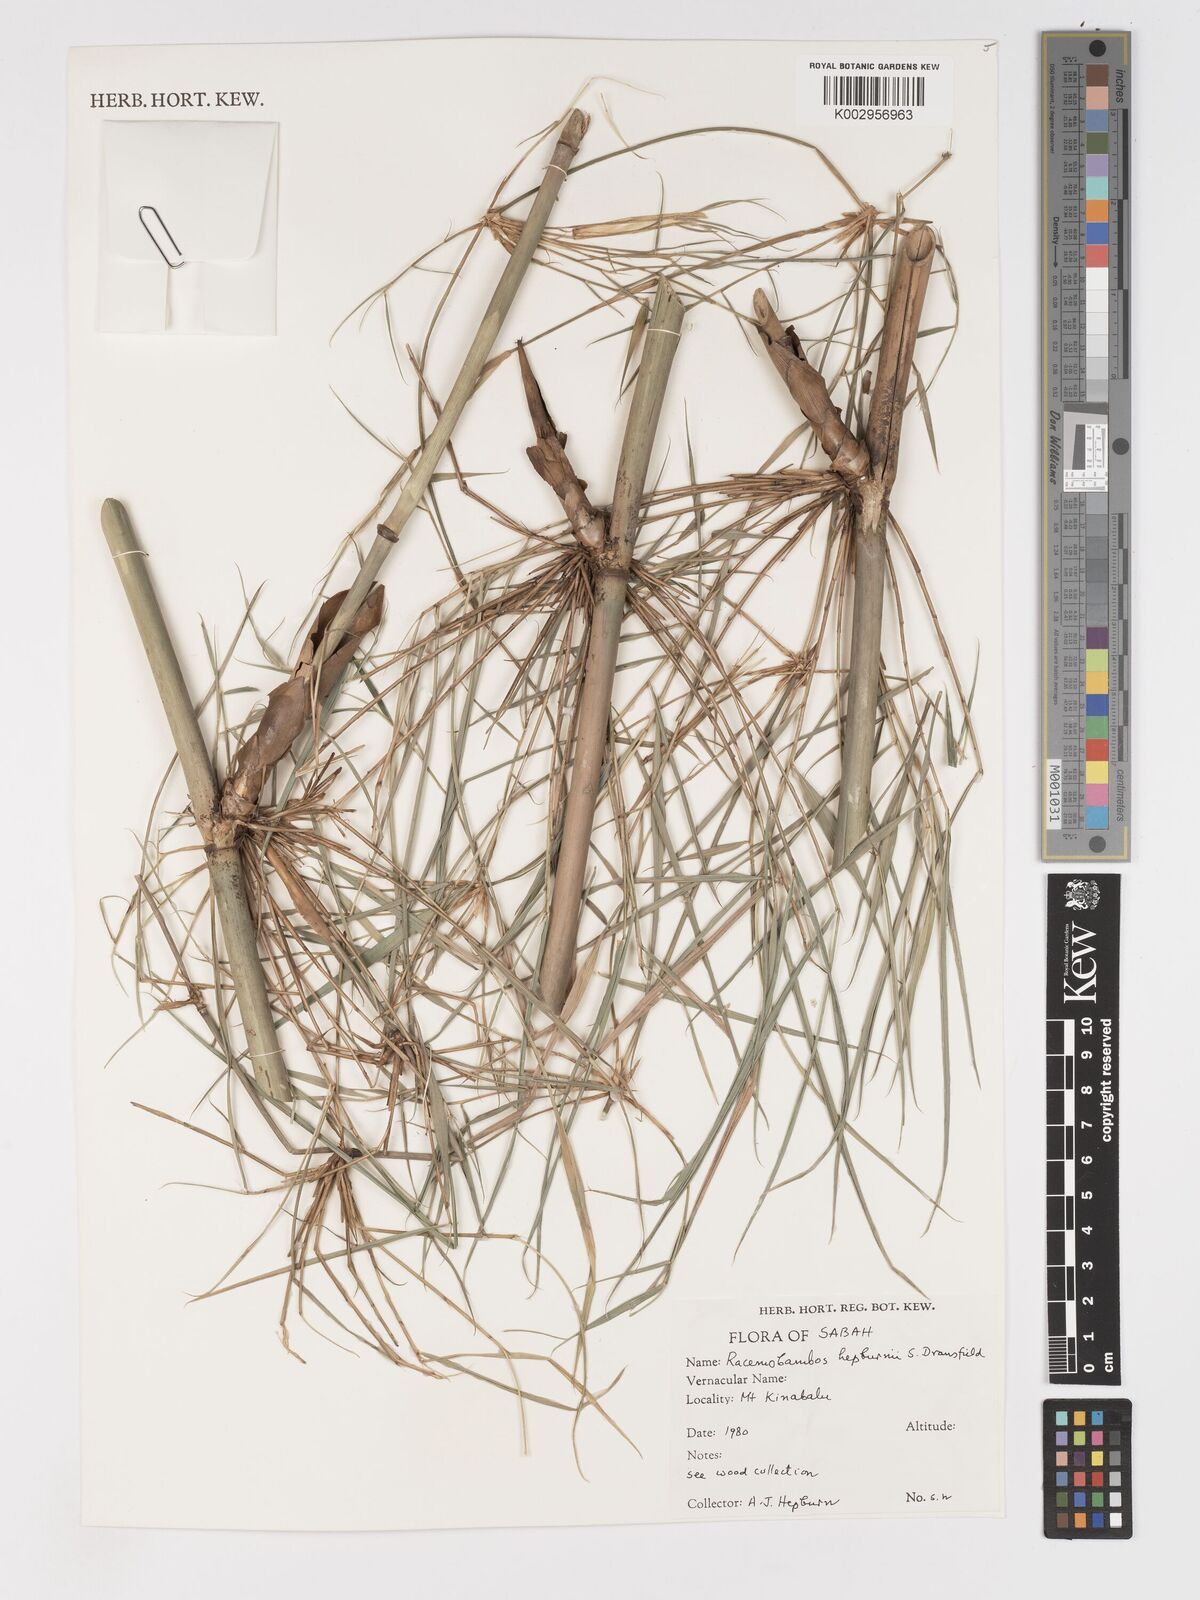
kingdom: Plantae
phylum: Tracheophyta
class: Liliopsida
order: Poales
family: Poaceae
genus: Racemobambos
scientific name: Racemobambos hepburnii
